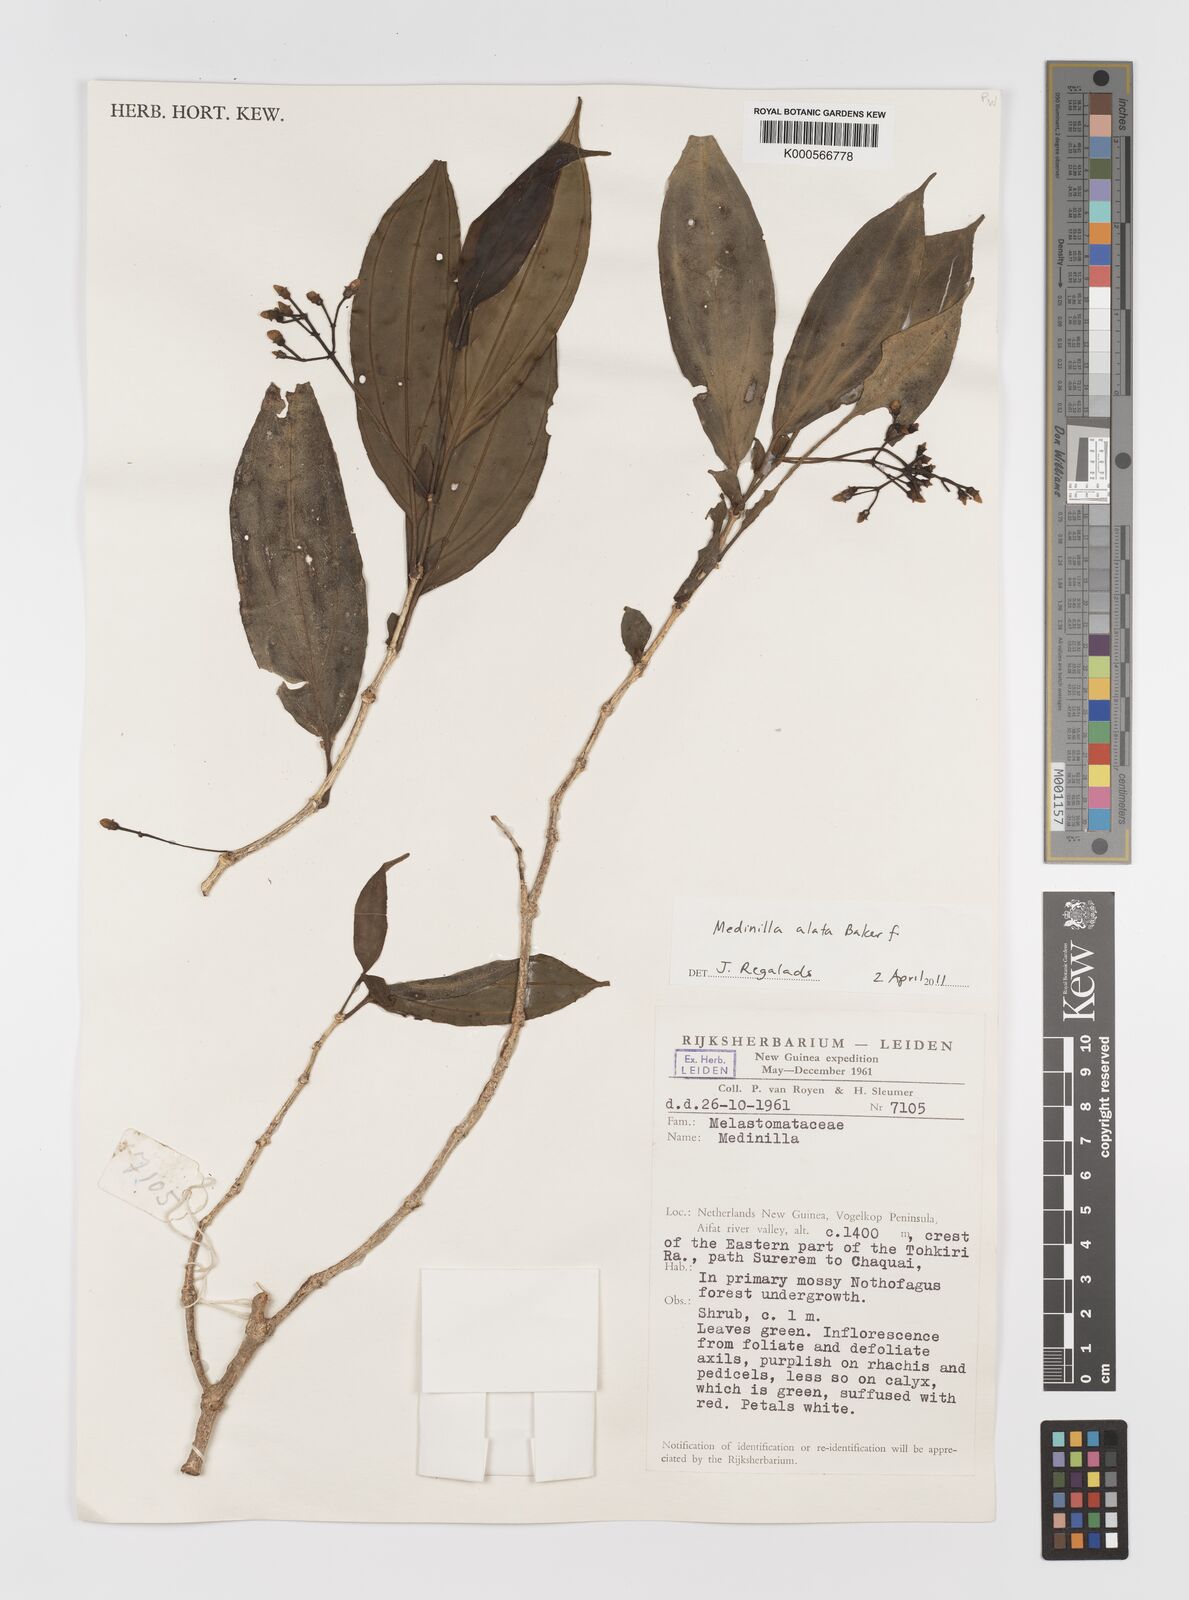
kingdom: Plantae
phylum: Tracheophyta
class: Magnoliopsida
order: Myrtales
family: Melastomataceae
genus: Medinilla
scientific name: Medinilla alata
